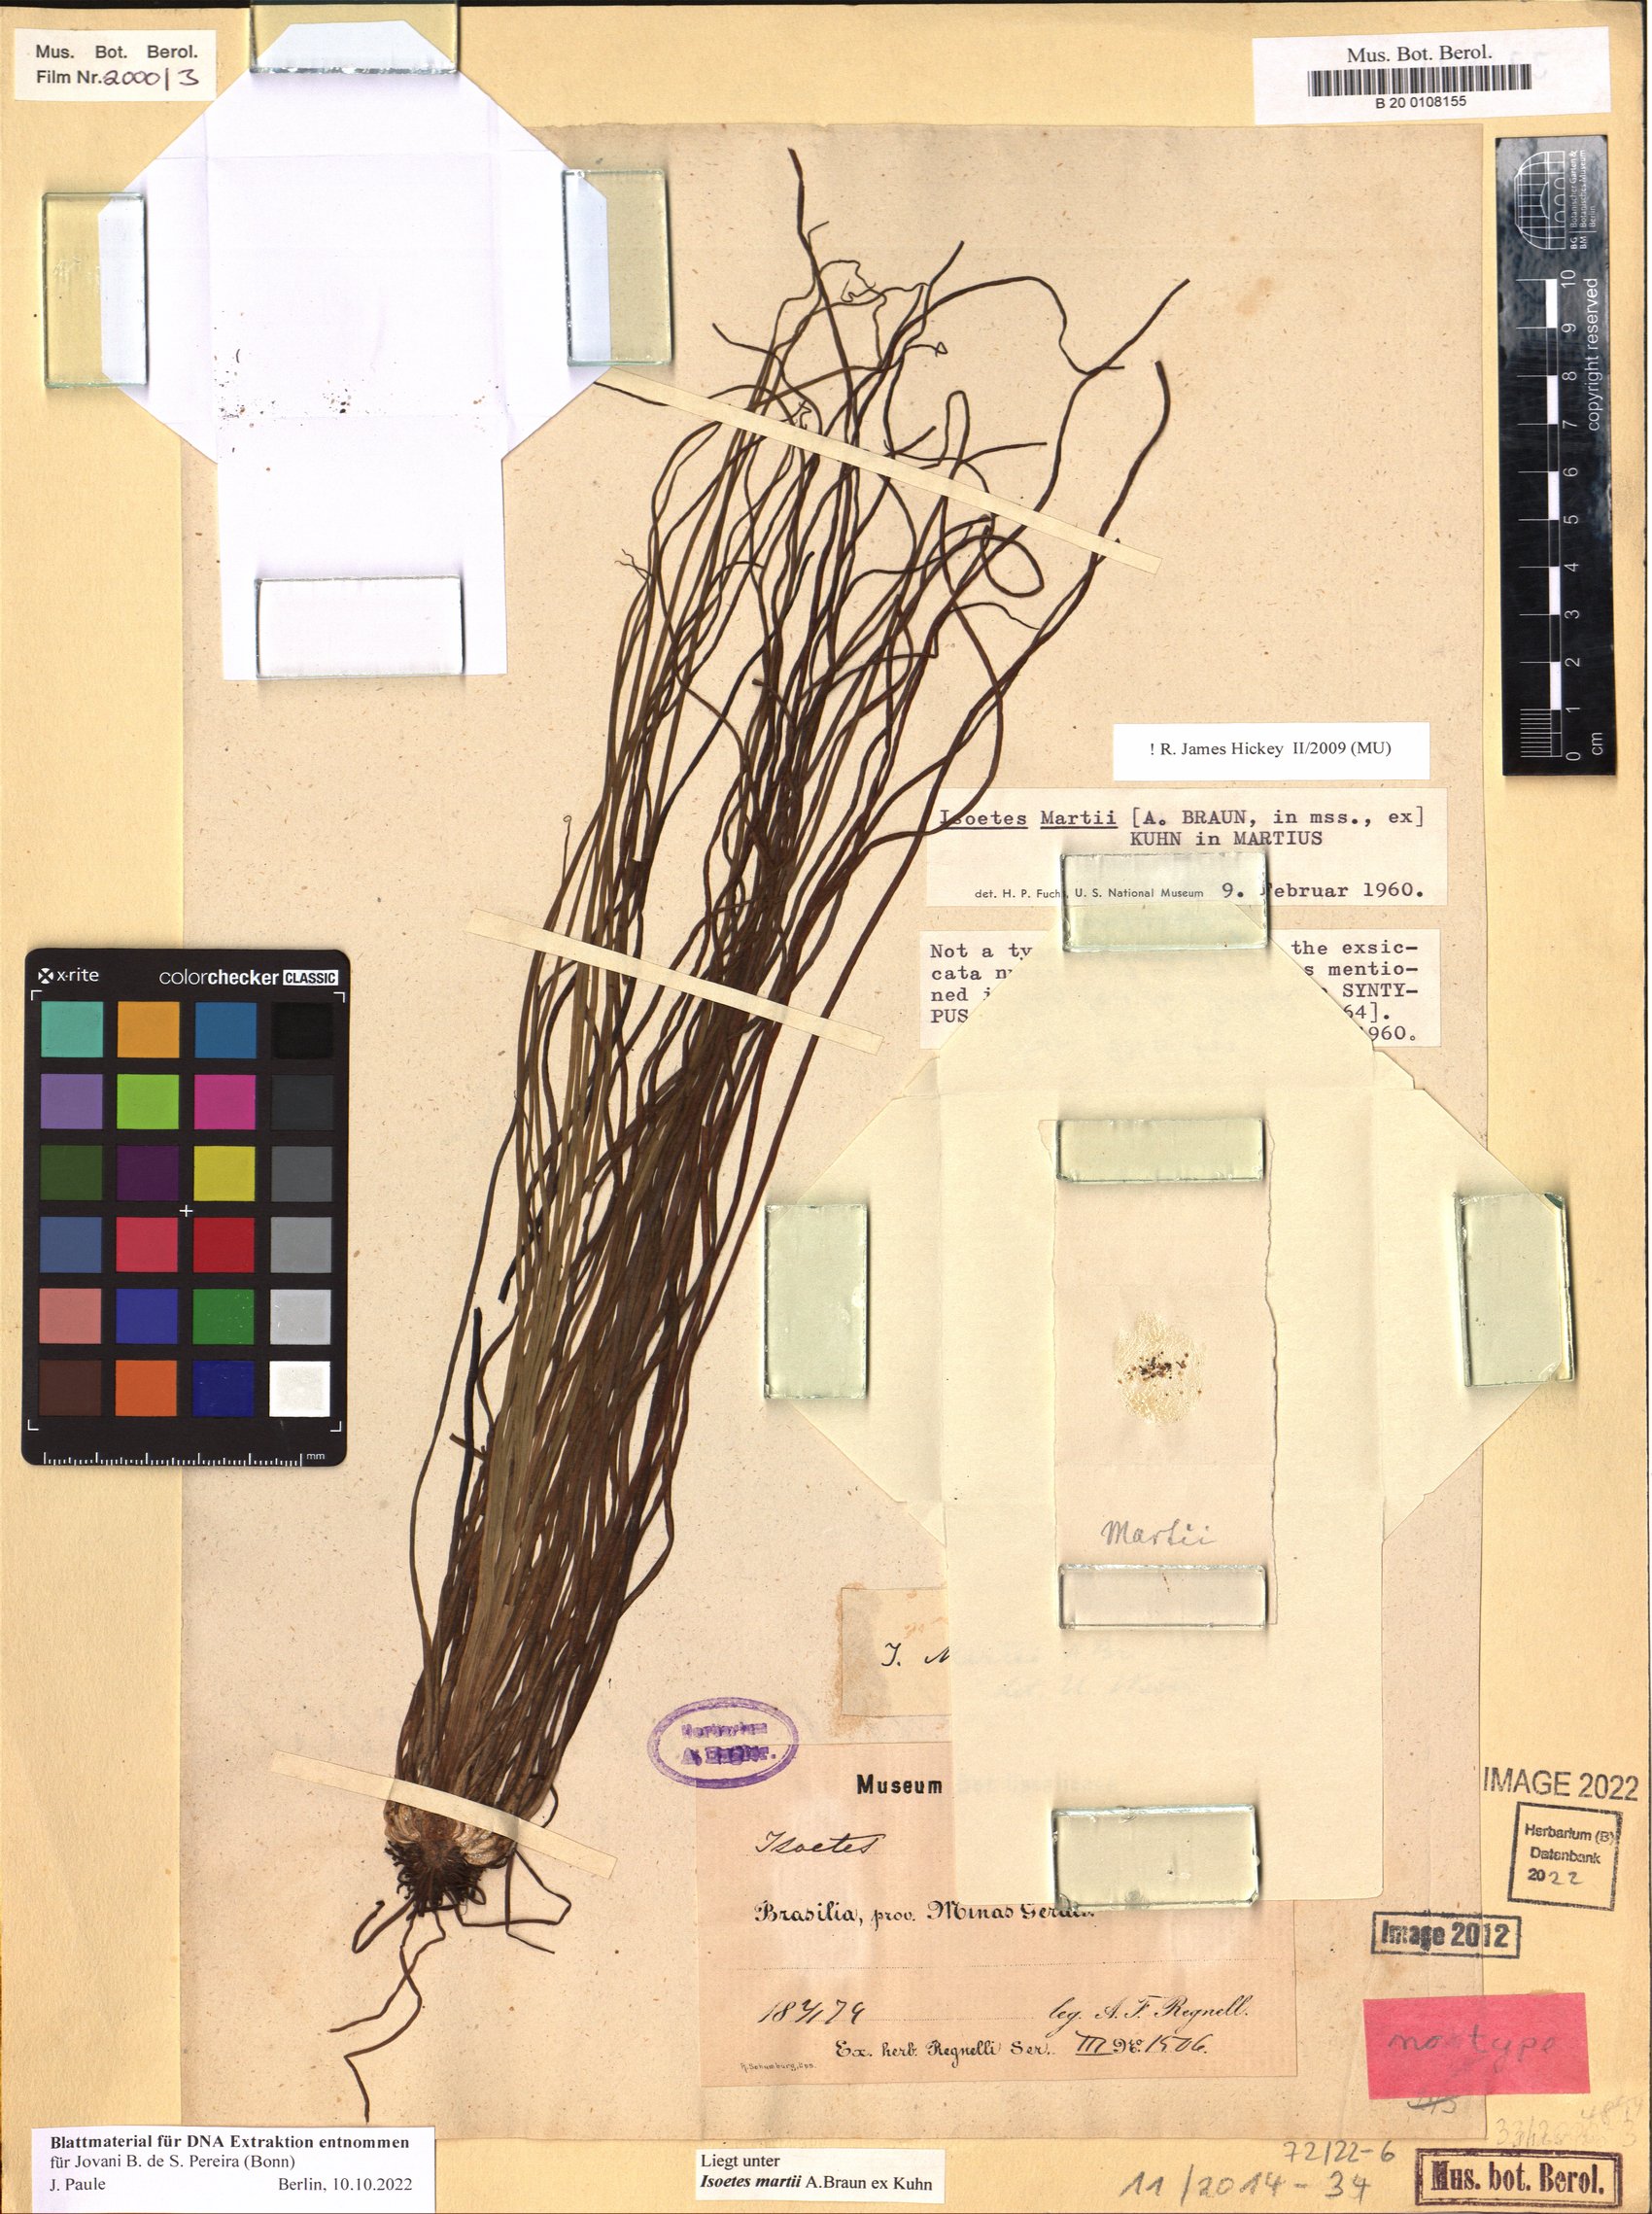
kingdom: Plantae
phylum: Tracheophyta
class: Lycopodiopsida
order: Isoetales
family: Isoetaceae
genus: Isoetes
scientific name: Isoetes martii
